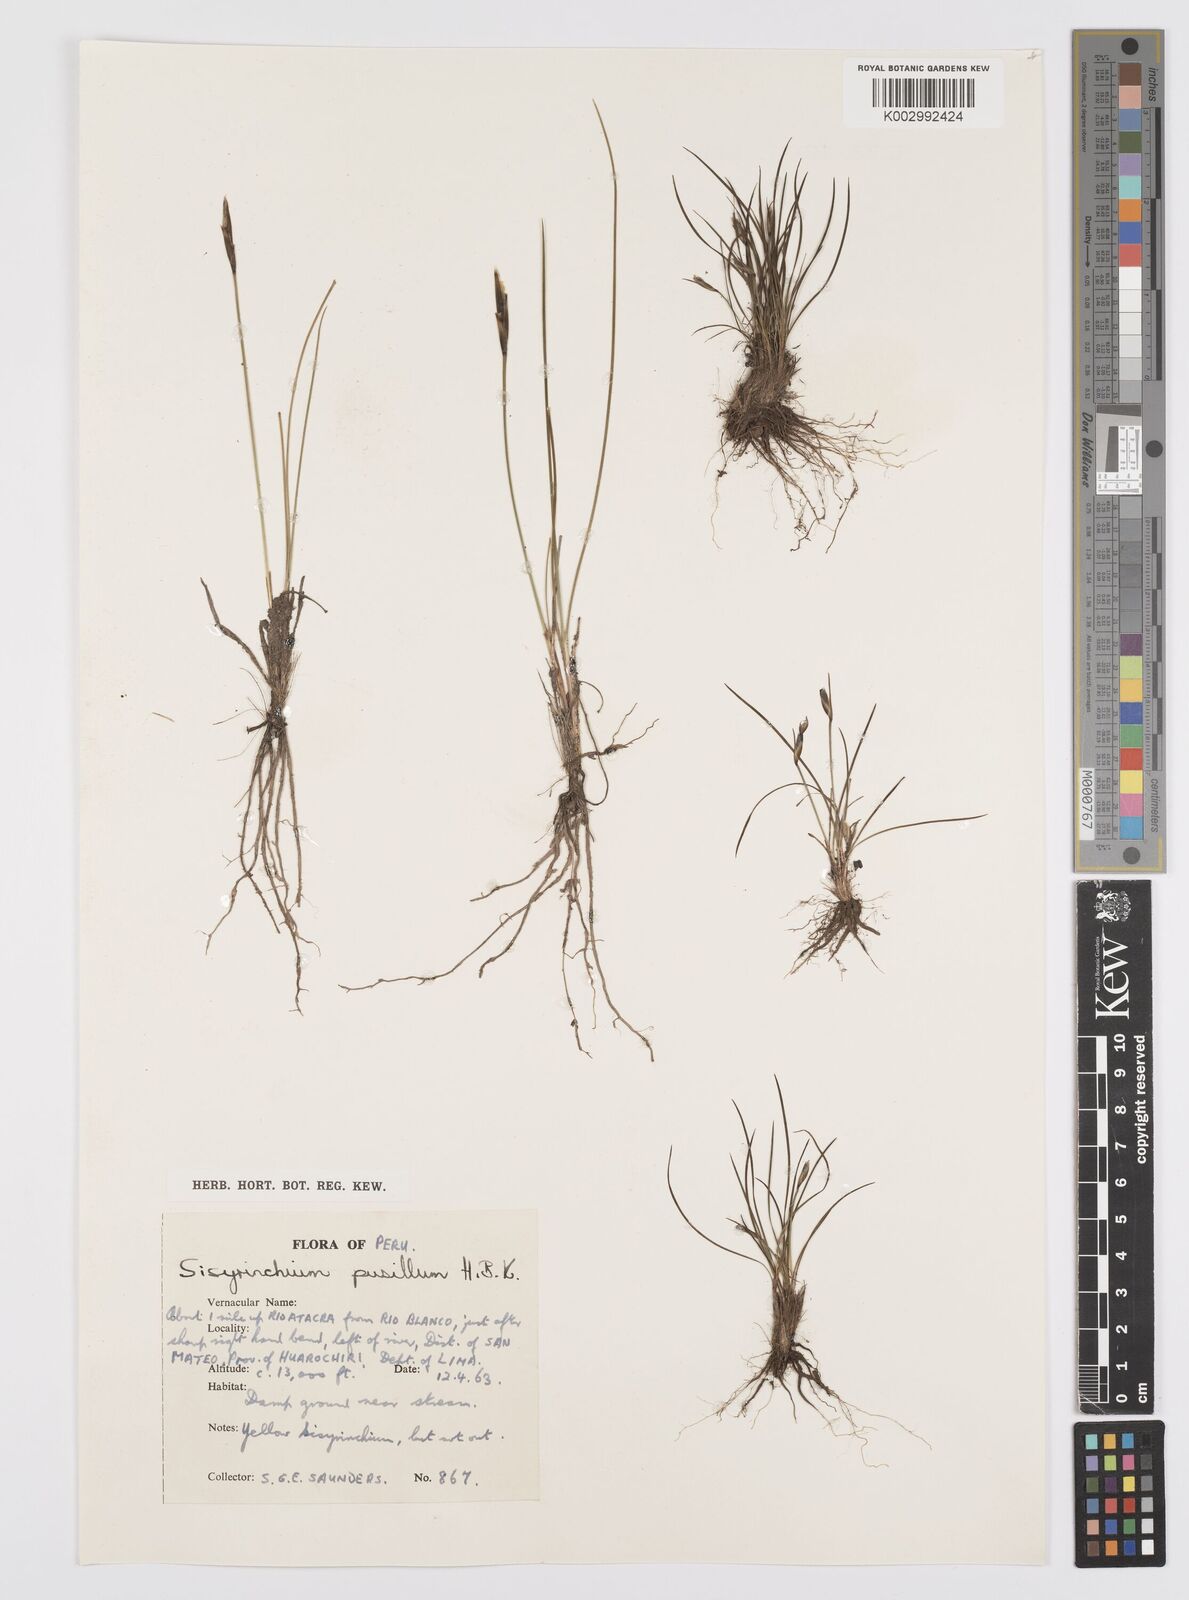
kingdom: Plantae
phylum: Tracheophyta
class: Liliopsida
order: Asparagales
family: Iridaceae
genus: Sisyrinchium
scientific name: Sisyrinchium pusillum
